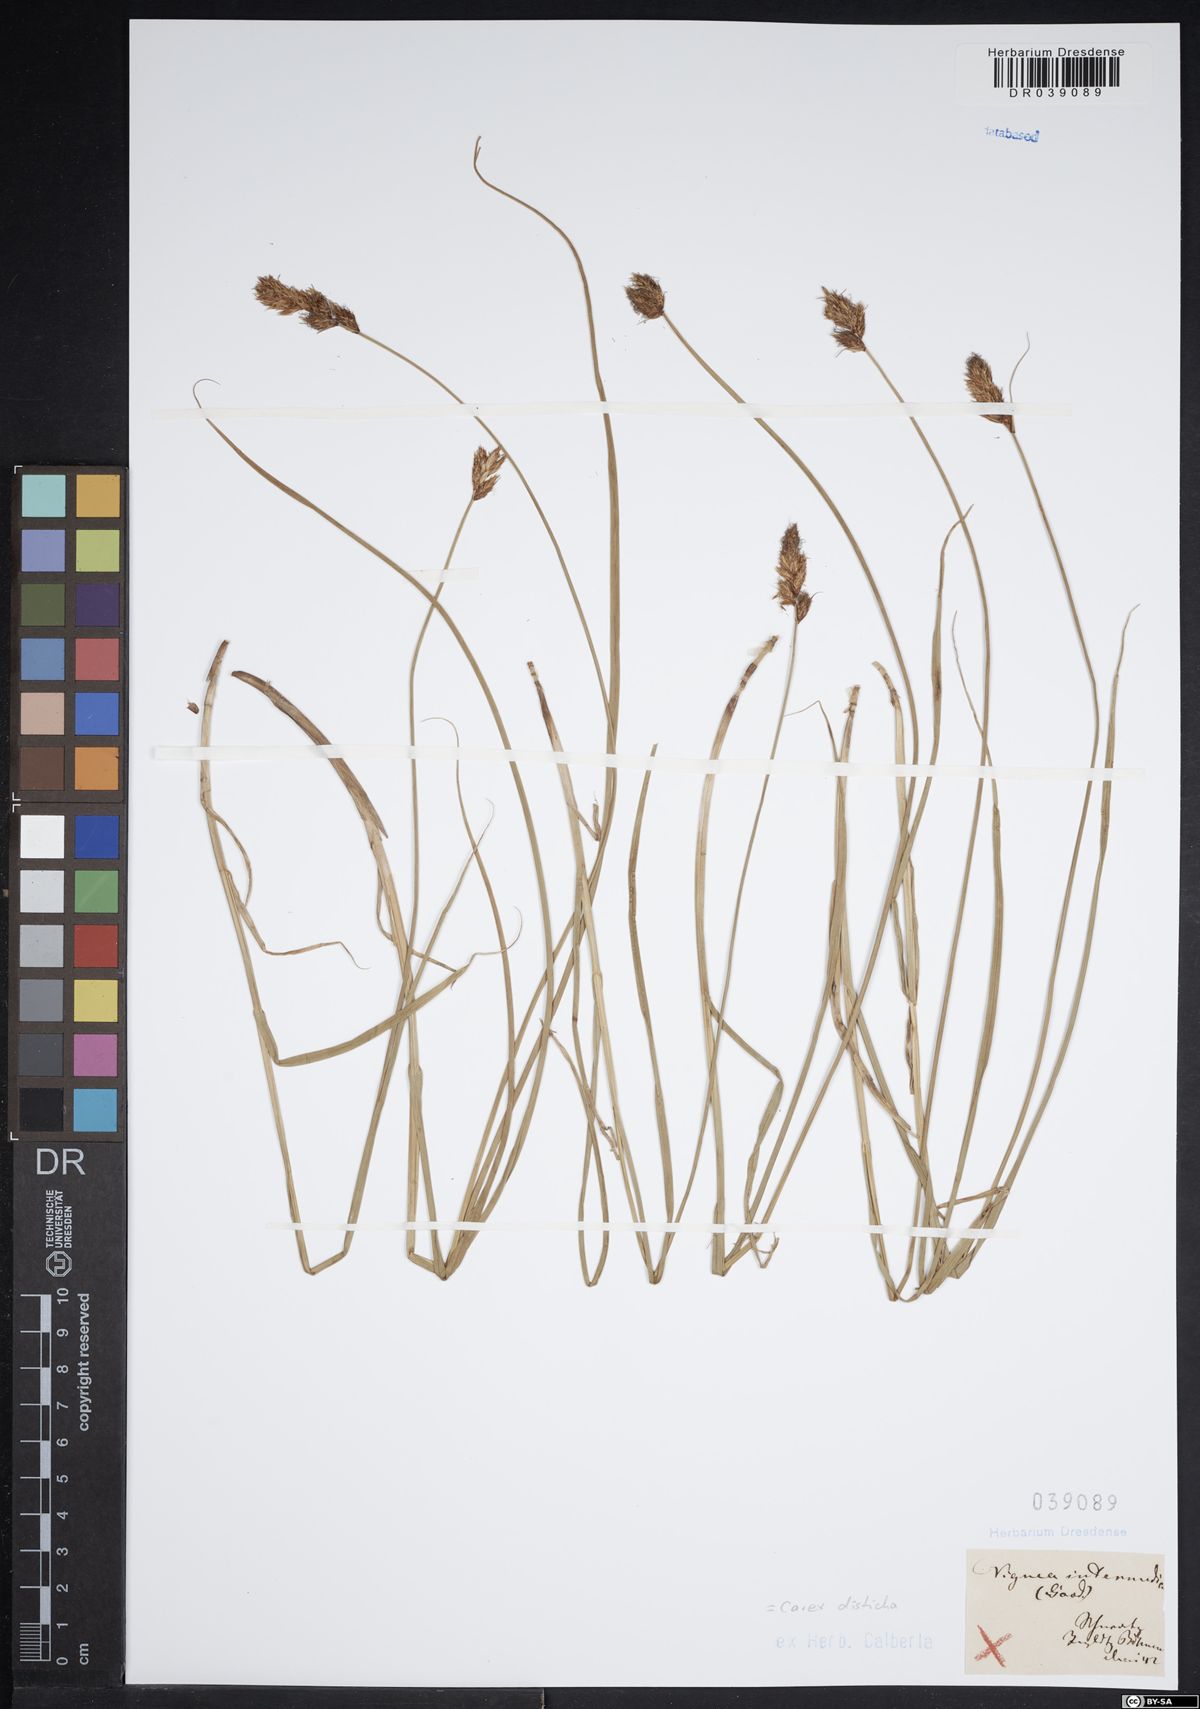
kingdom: Plantae
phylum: Tracheophyta
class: Liliopsida
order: Poales
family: Cyperaceae
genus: Carex
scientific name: Carex disticha
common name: Brown sedge
